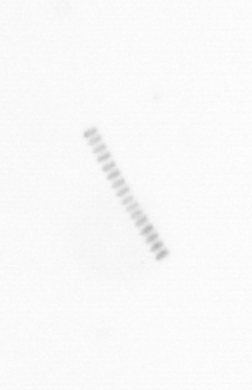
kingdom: Chromista
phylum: Ochrophyta
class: Bacillariophyceae
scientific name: Bacillariophyceae
